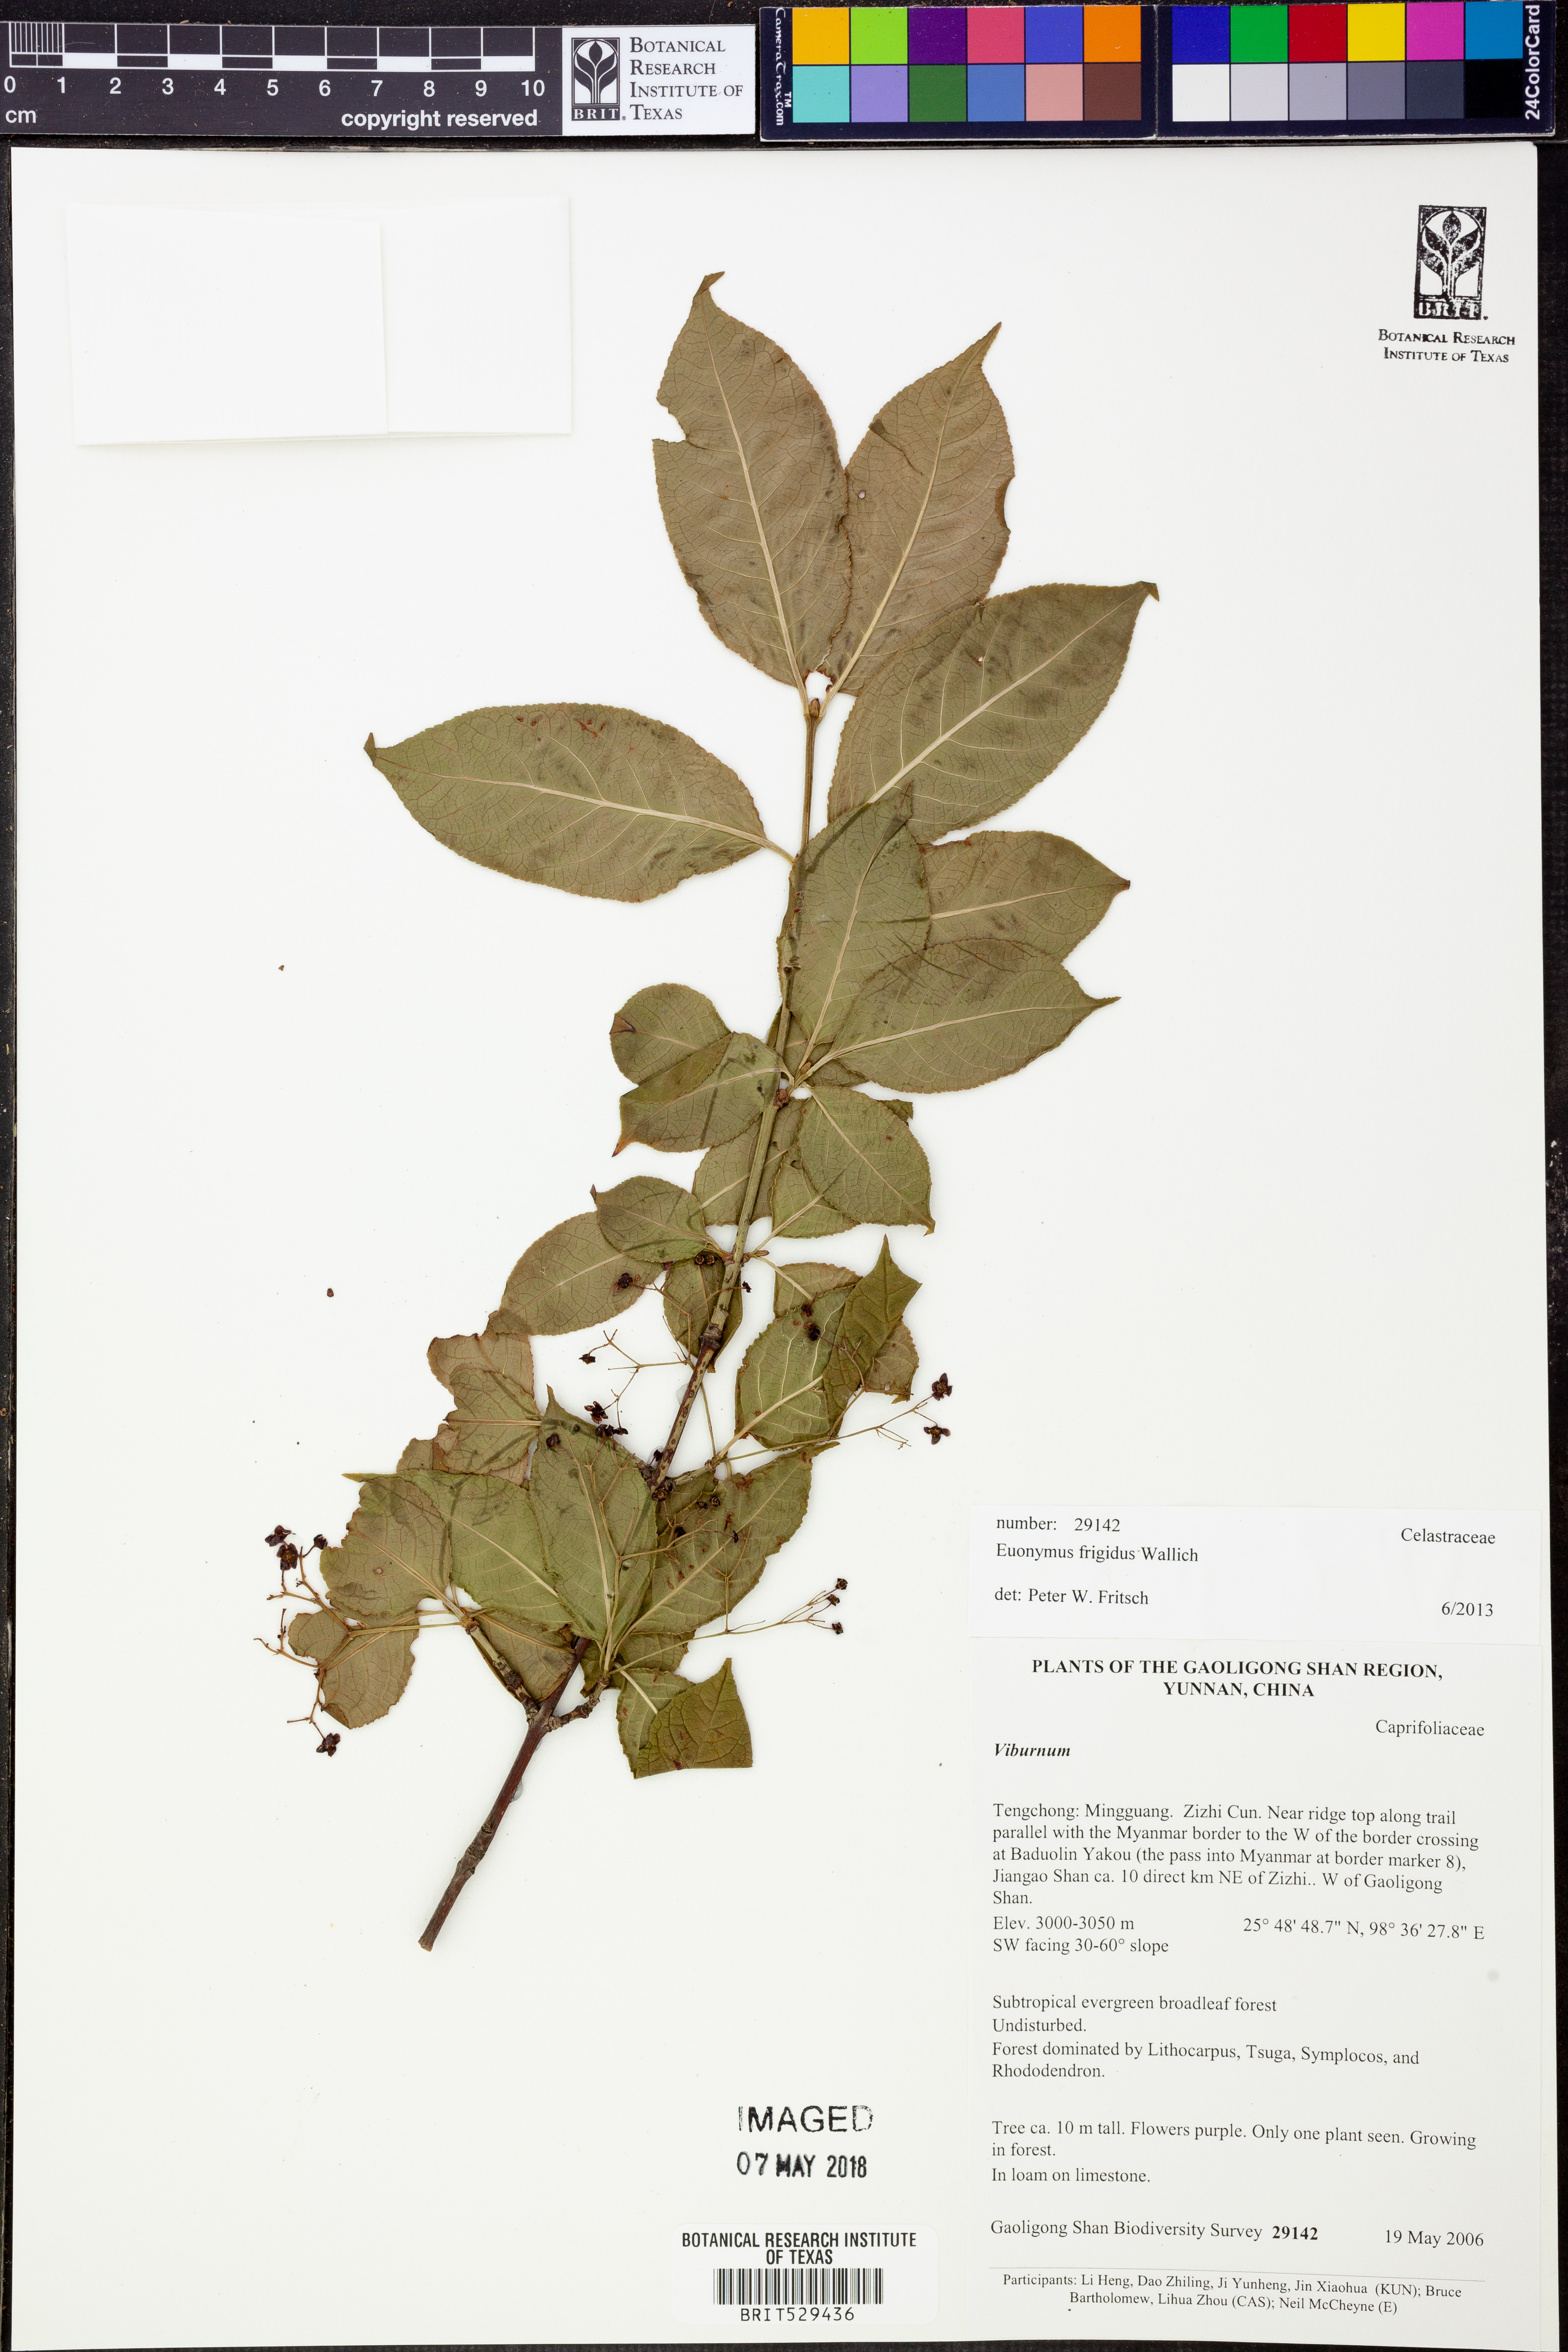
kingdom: Plantae
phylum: Tracheophyta
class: Magnoliopsida
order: Celastrales
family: Celastraceae
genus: Euonymus
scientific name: Euonymus frigidus
